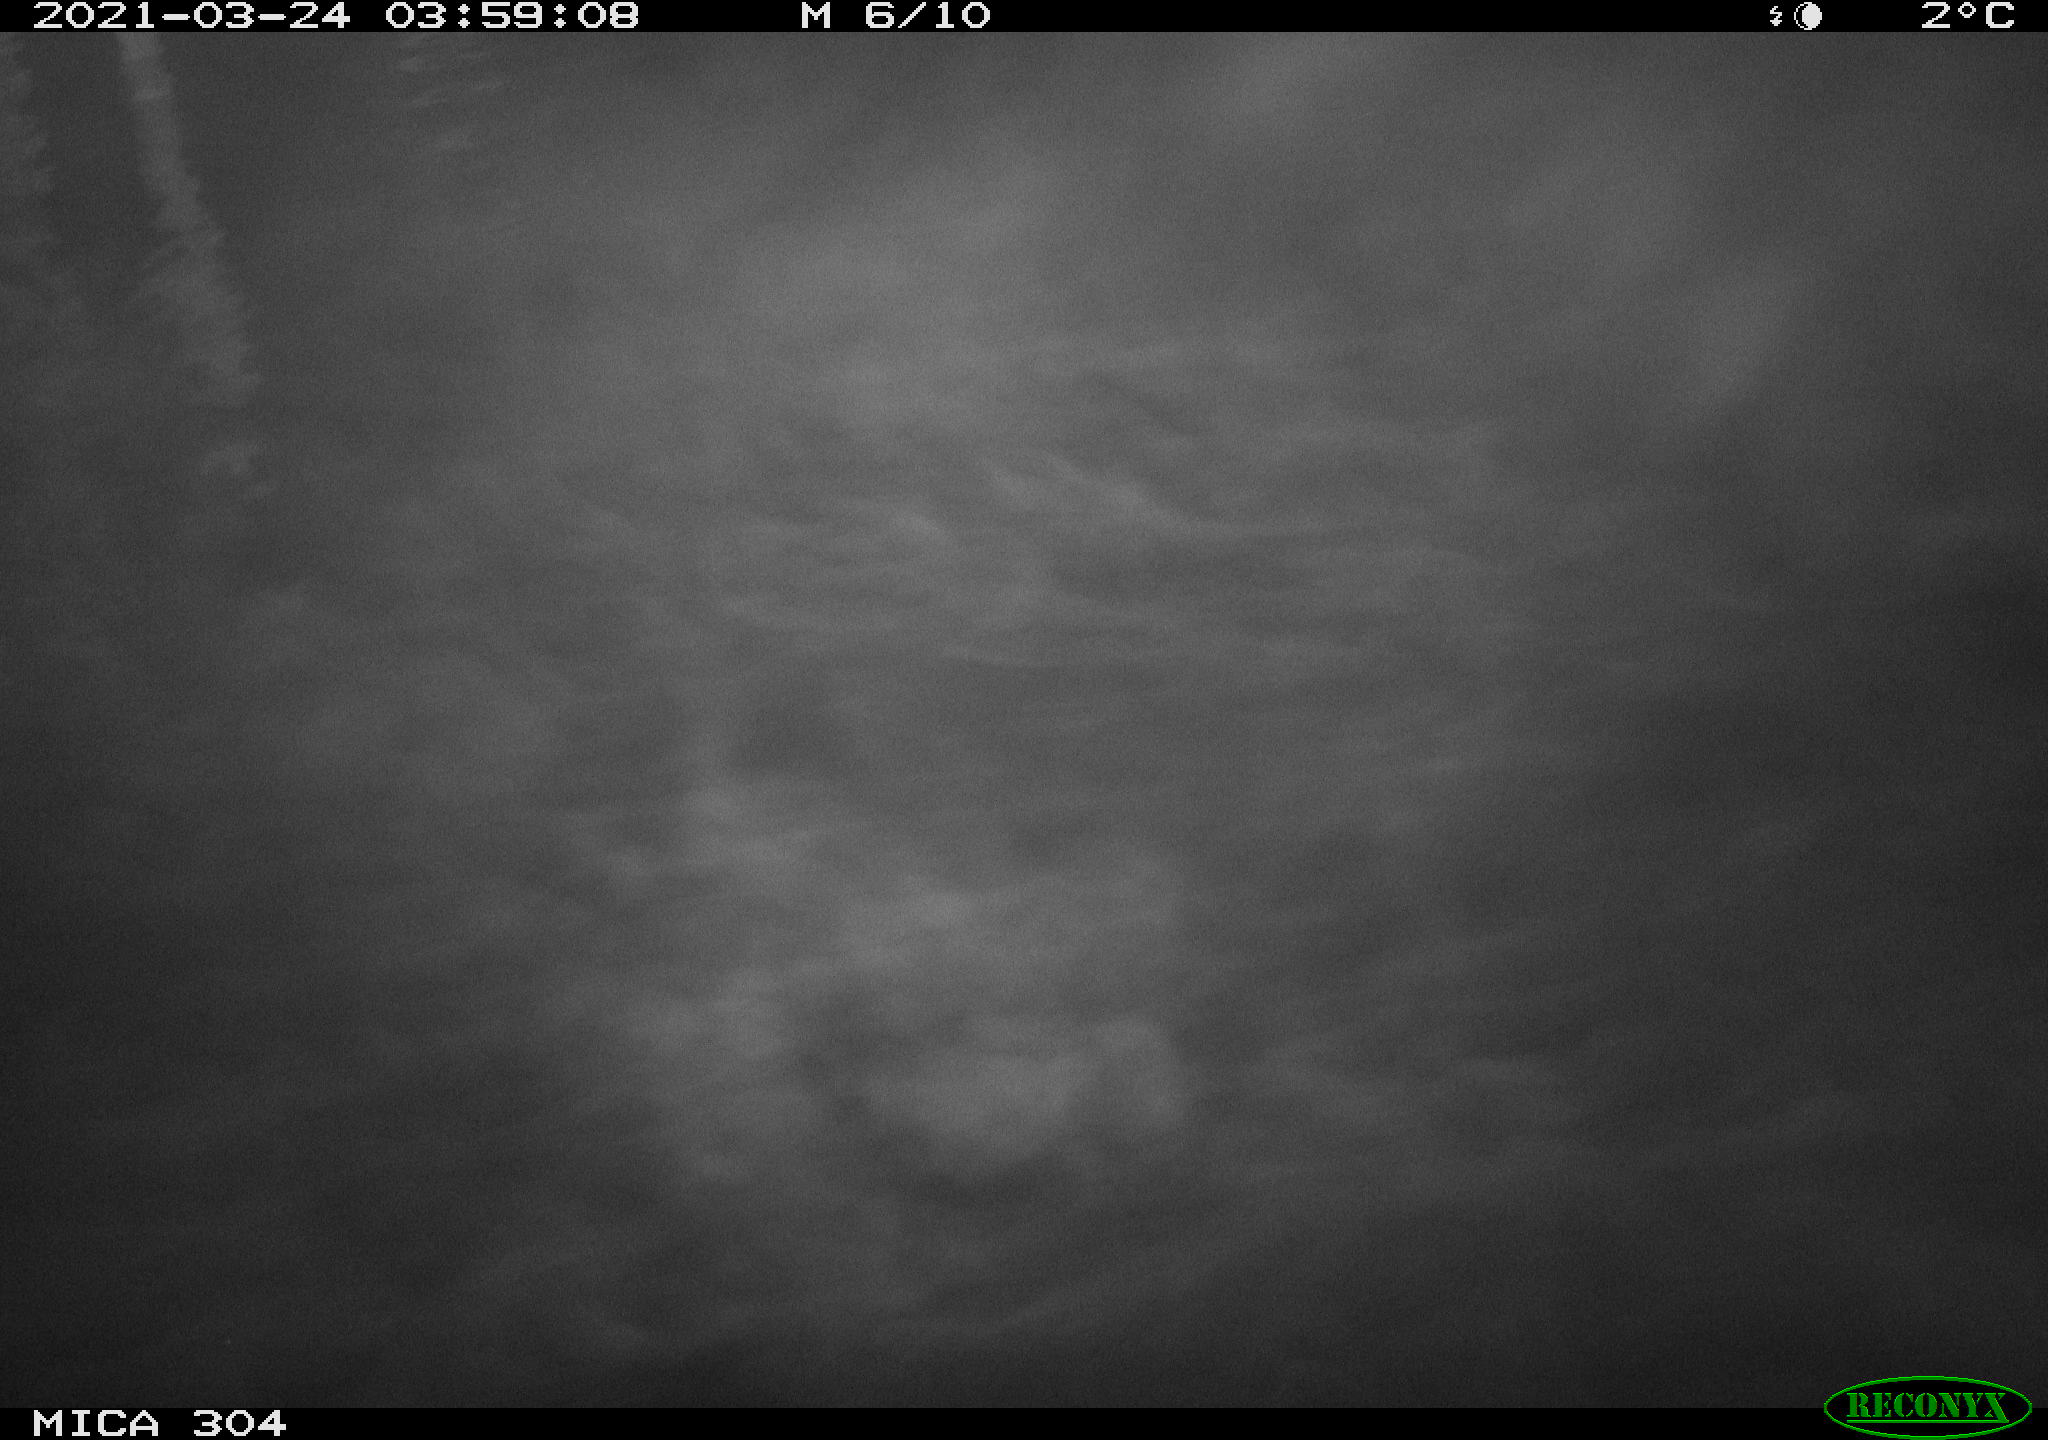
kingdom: Animalia
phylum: Chordata
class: Aves
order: Anseriformes
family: Anatidae
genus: Anas
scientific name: Anas platyrhynchos
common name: Mallard
